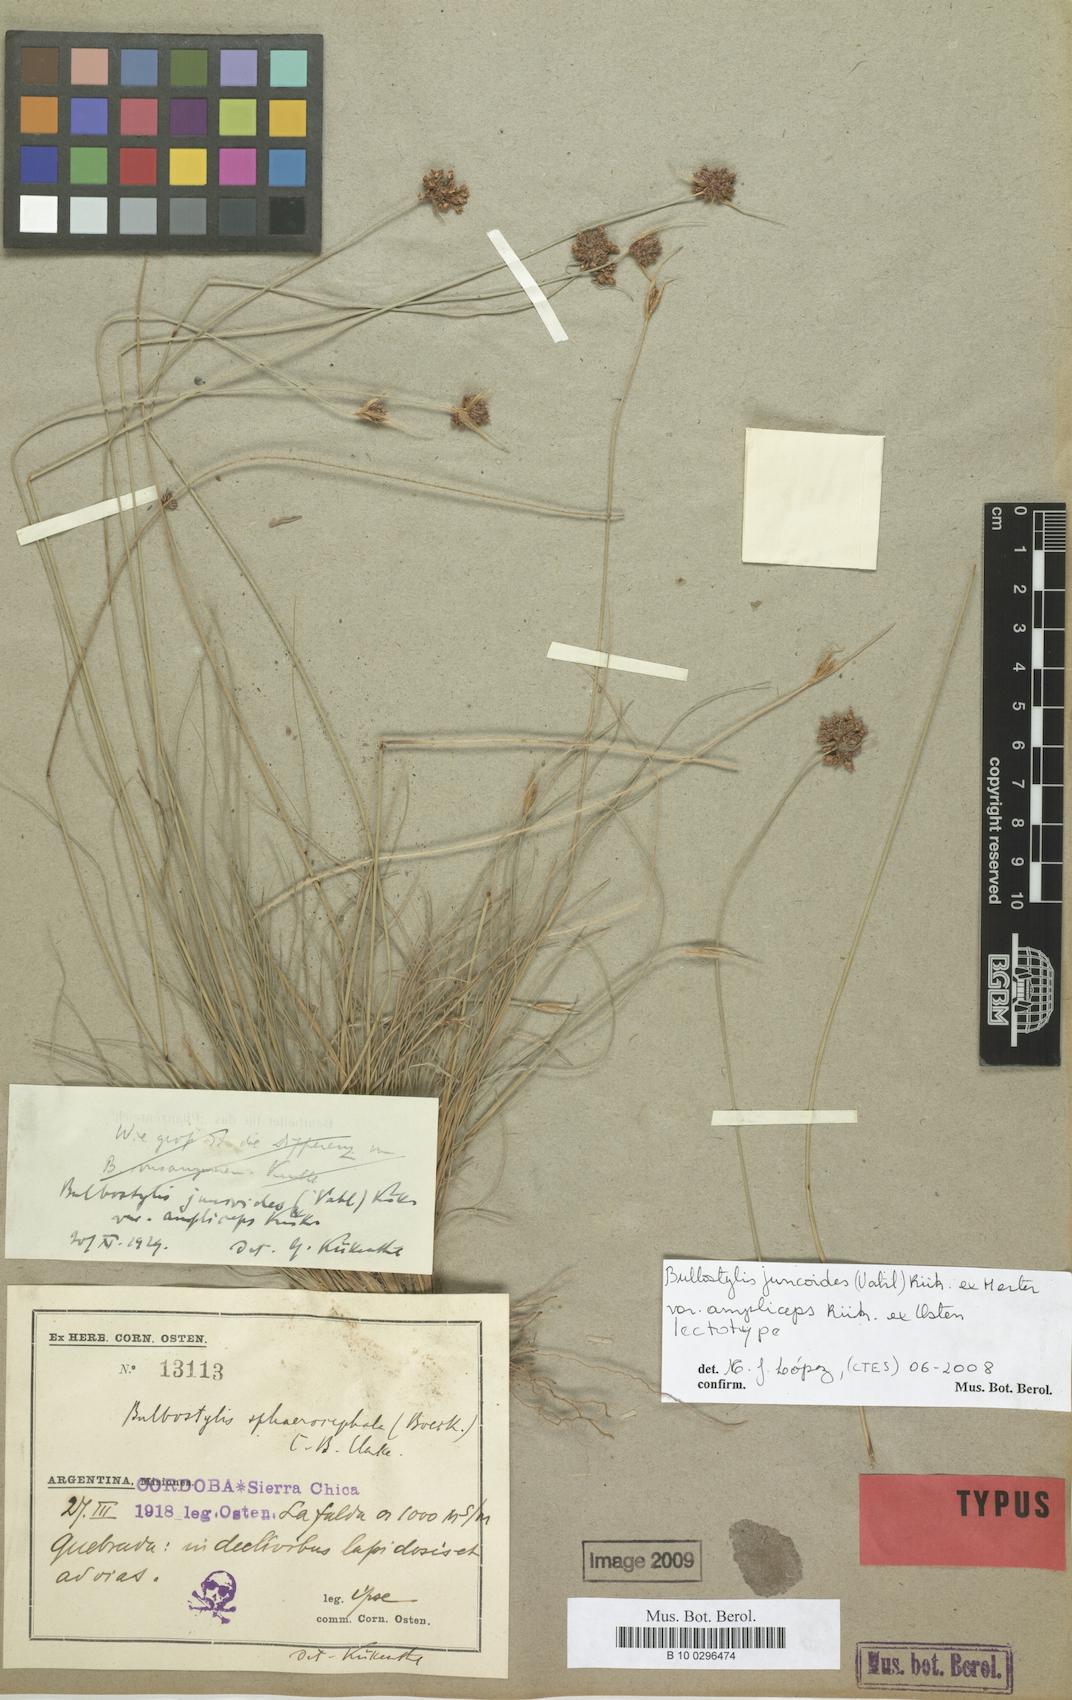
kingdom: Plantae
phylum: Tracheophyta
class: Liliopsida
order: Poales
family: Cyperaceae
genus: Bulbostylis
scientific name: Bulbostylis juncoides
